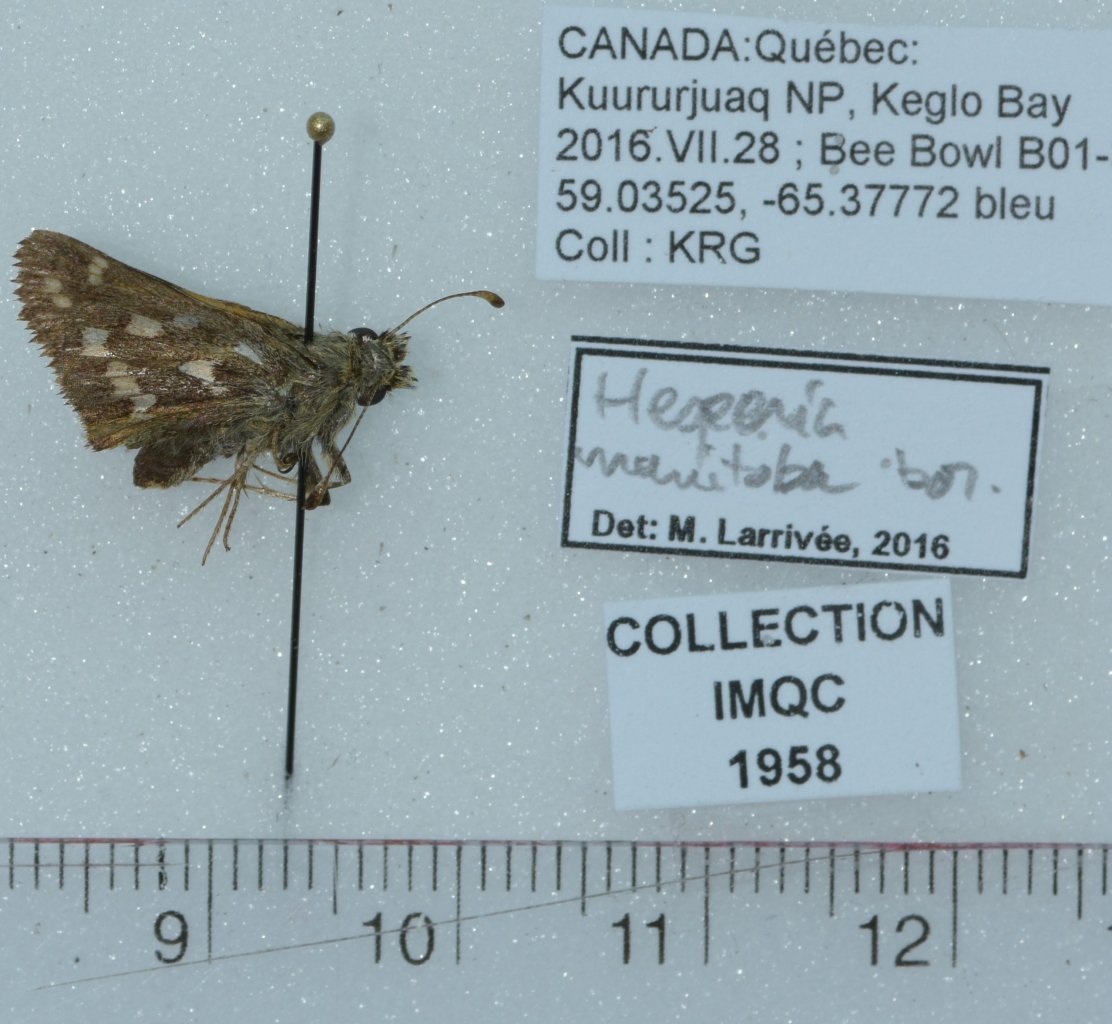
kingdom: Animalia
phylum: Arthropoda
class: Insecta
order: Lepidoptera
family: Hesperiidae
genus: Hesperia
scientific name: Hesperia comma
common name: Common Branded Skipper
